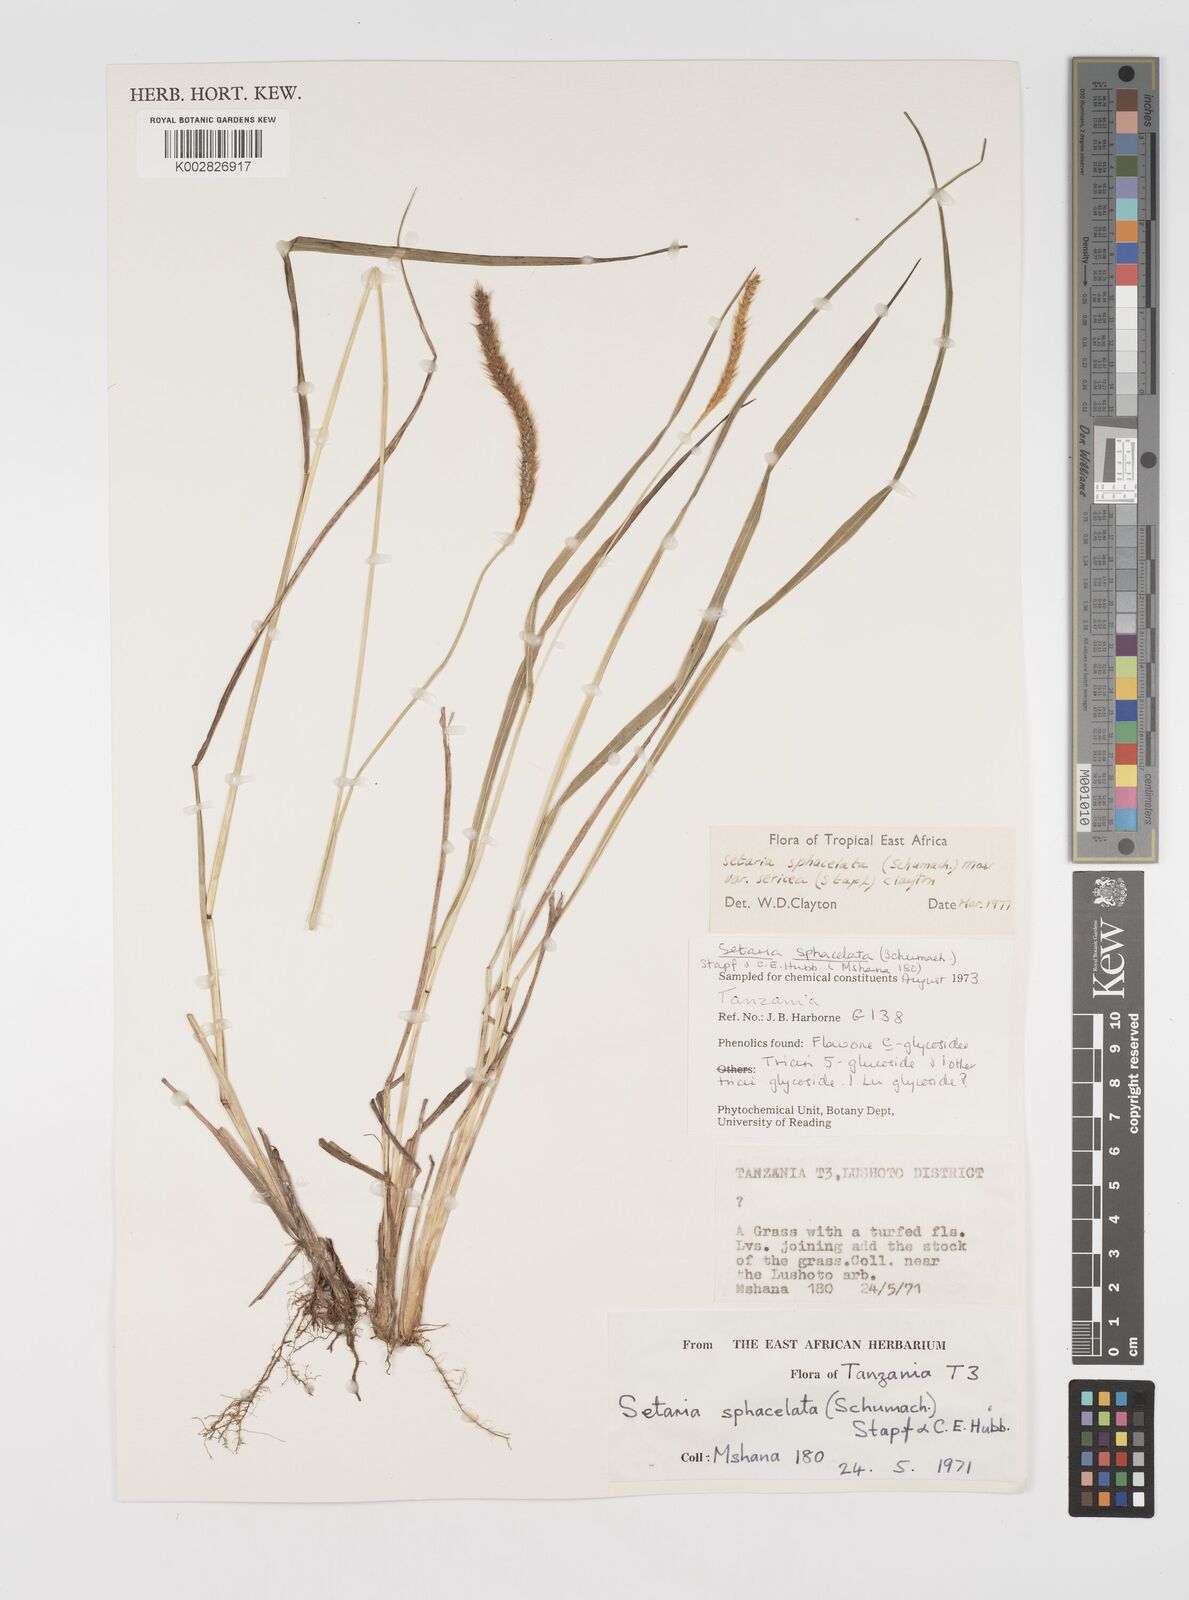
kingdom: Plantae
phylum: Tracheophyta
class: Liliopsida
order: Poales
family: Poaceae
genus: Setaria
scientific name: Setaria sphacelata
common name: African bristlegrass
